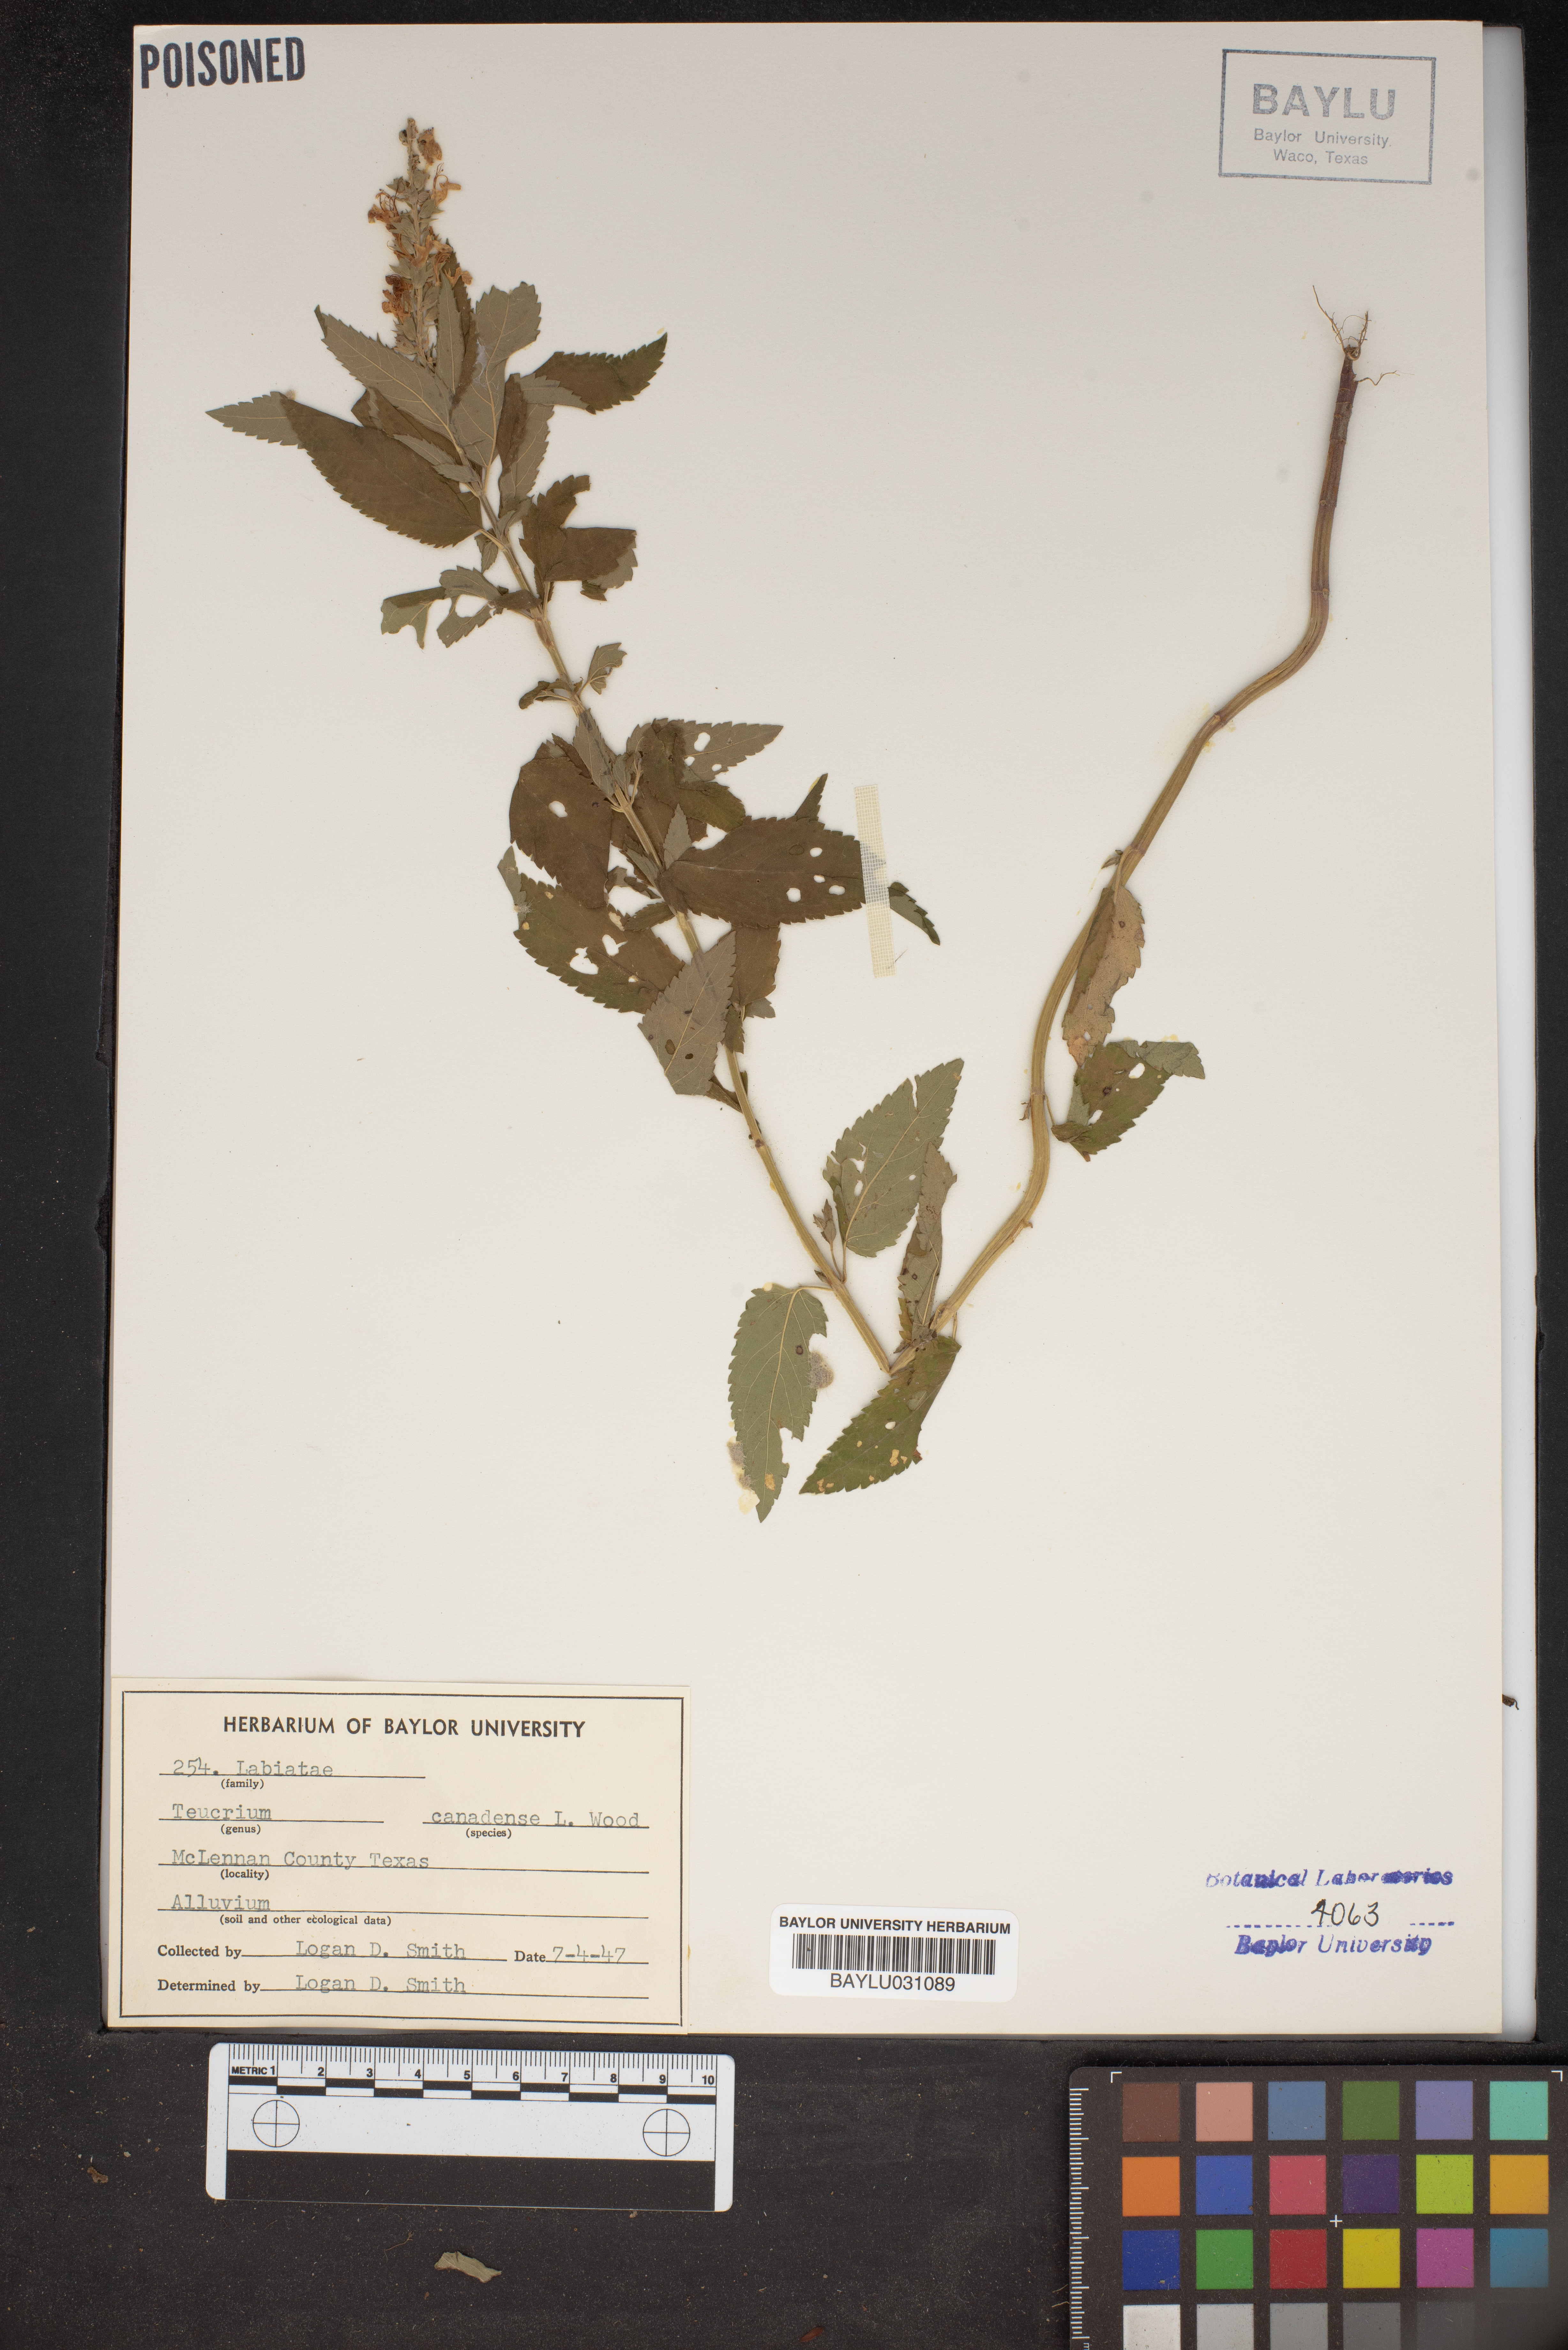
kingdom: Plantae
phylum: Tracheophyta
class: Magnoliopsida
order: Lamiales
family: Lamiaceae
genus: Teucrium
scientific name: Teucrium canadense
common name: American germander
